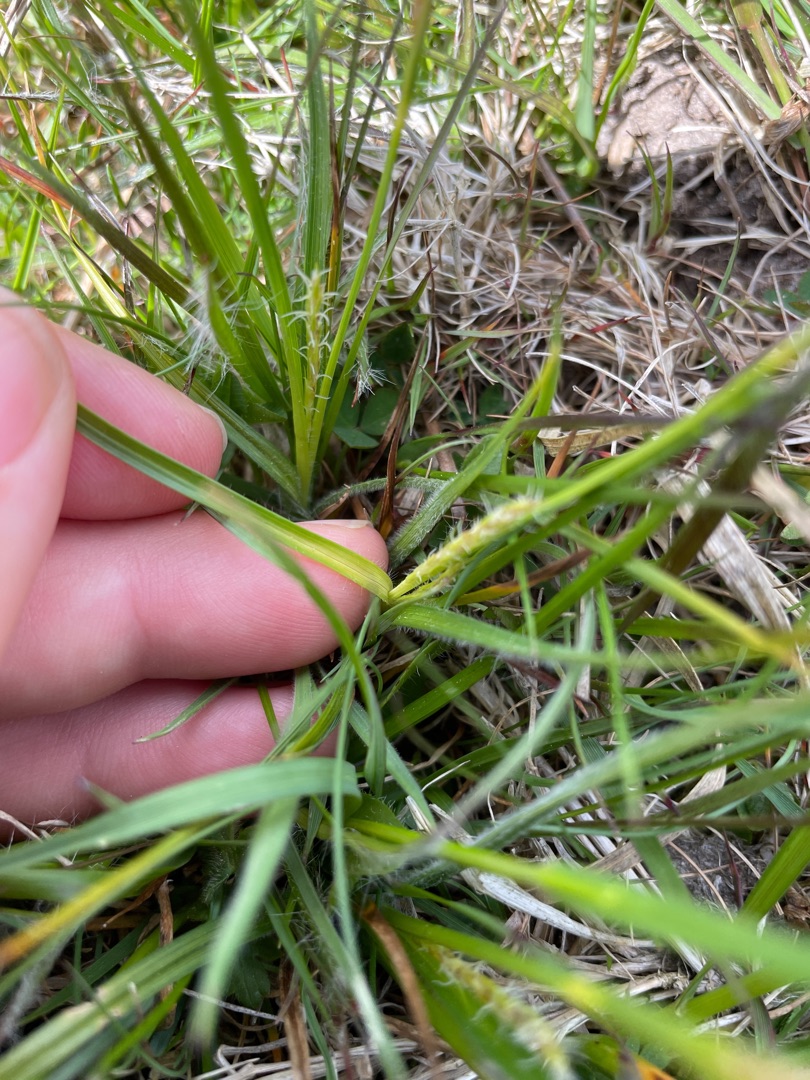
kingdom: Plantae
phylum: Tracheophyta
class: Liliopsida
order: Poales
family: Cyperaceae
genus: Carex
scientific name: Carex hirta
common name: Håret star
